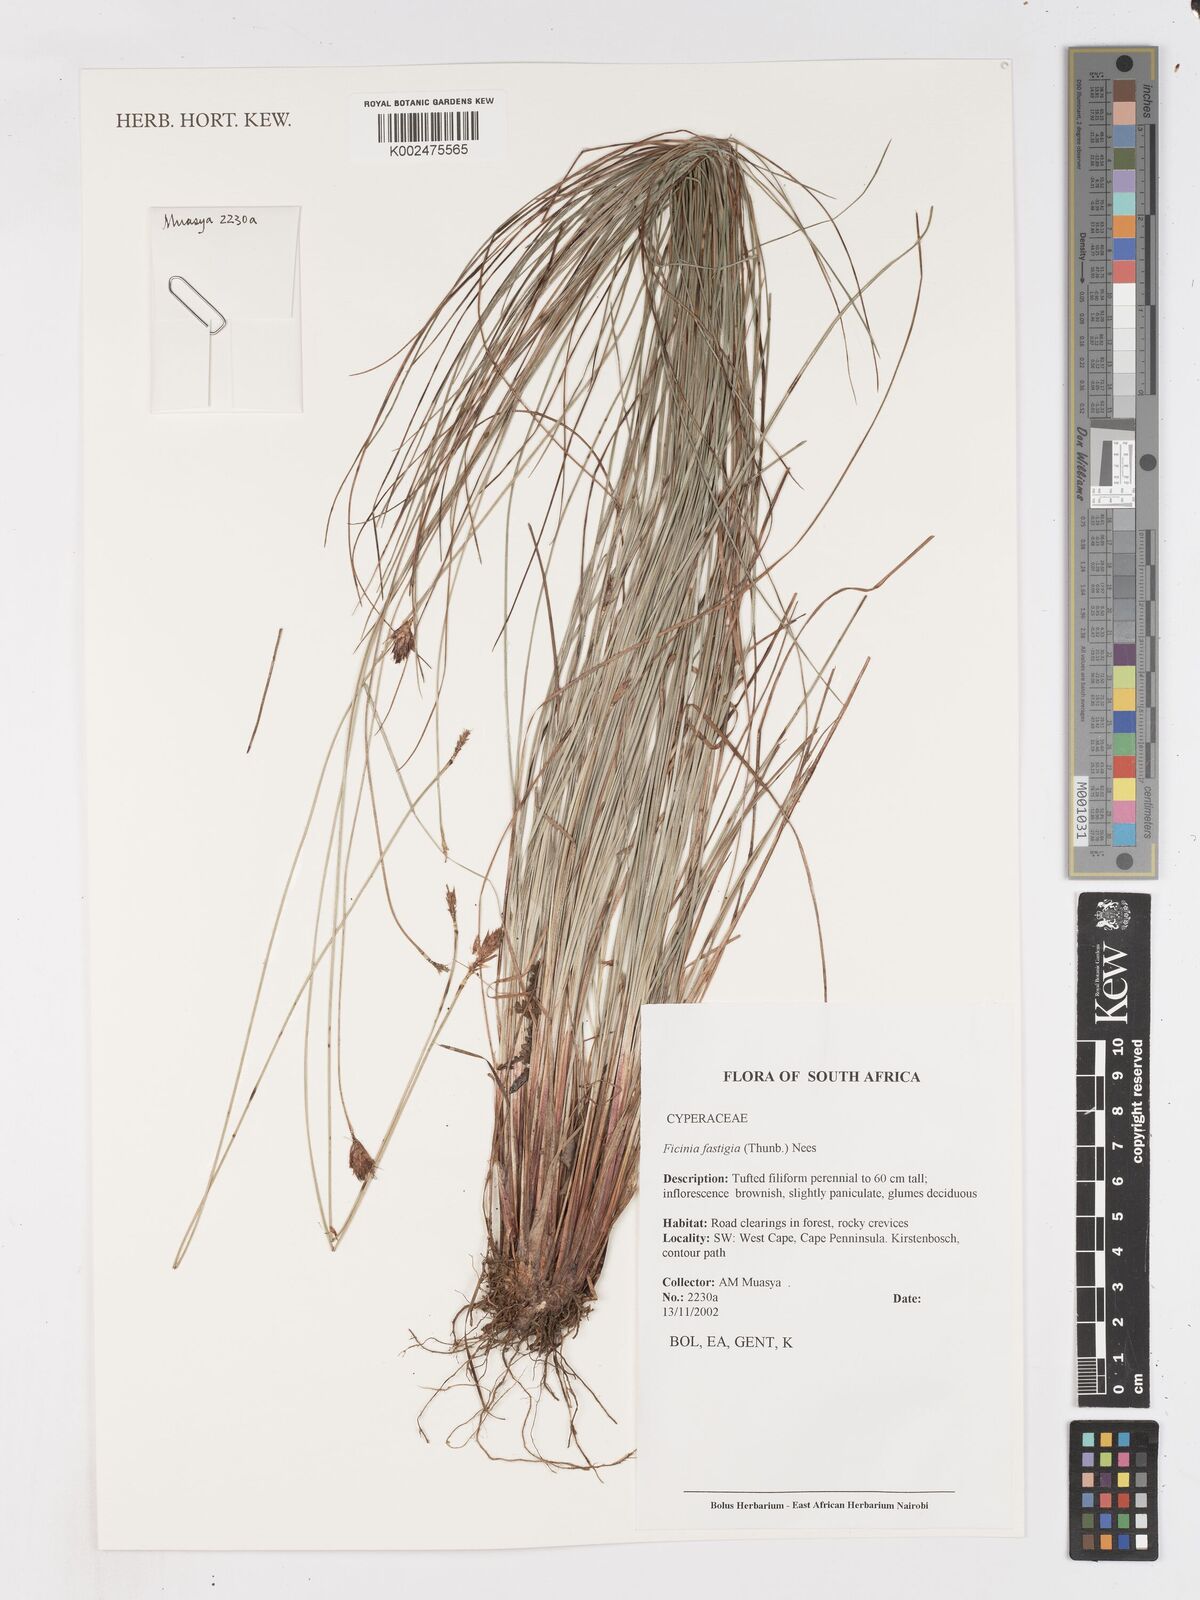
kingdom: Plantae
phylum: Tracheophyta
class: Liliopsida
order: Poales
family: Cyperaceae
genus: Ficinia
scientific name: Ficinia fastigiata
